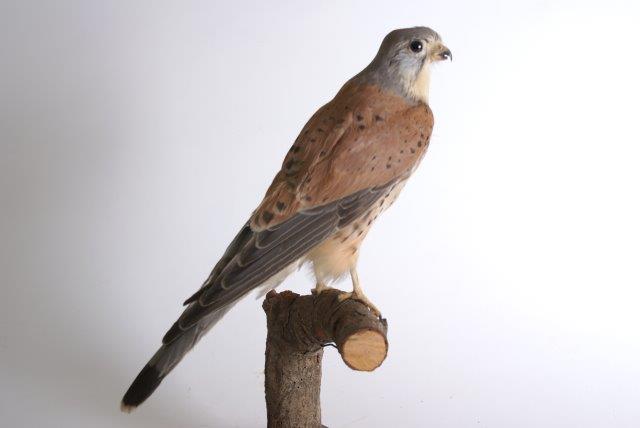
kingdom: Animalia
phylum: Chordata
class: Aves
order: Falconiformes
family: Falconidae
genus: Falco
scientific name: Falco tinnunculus
